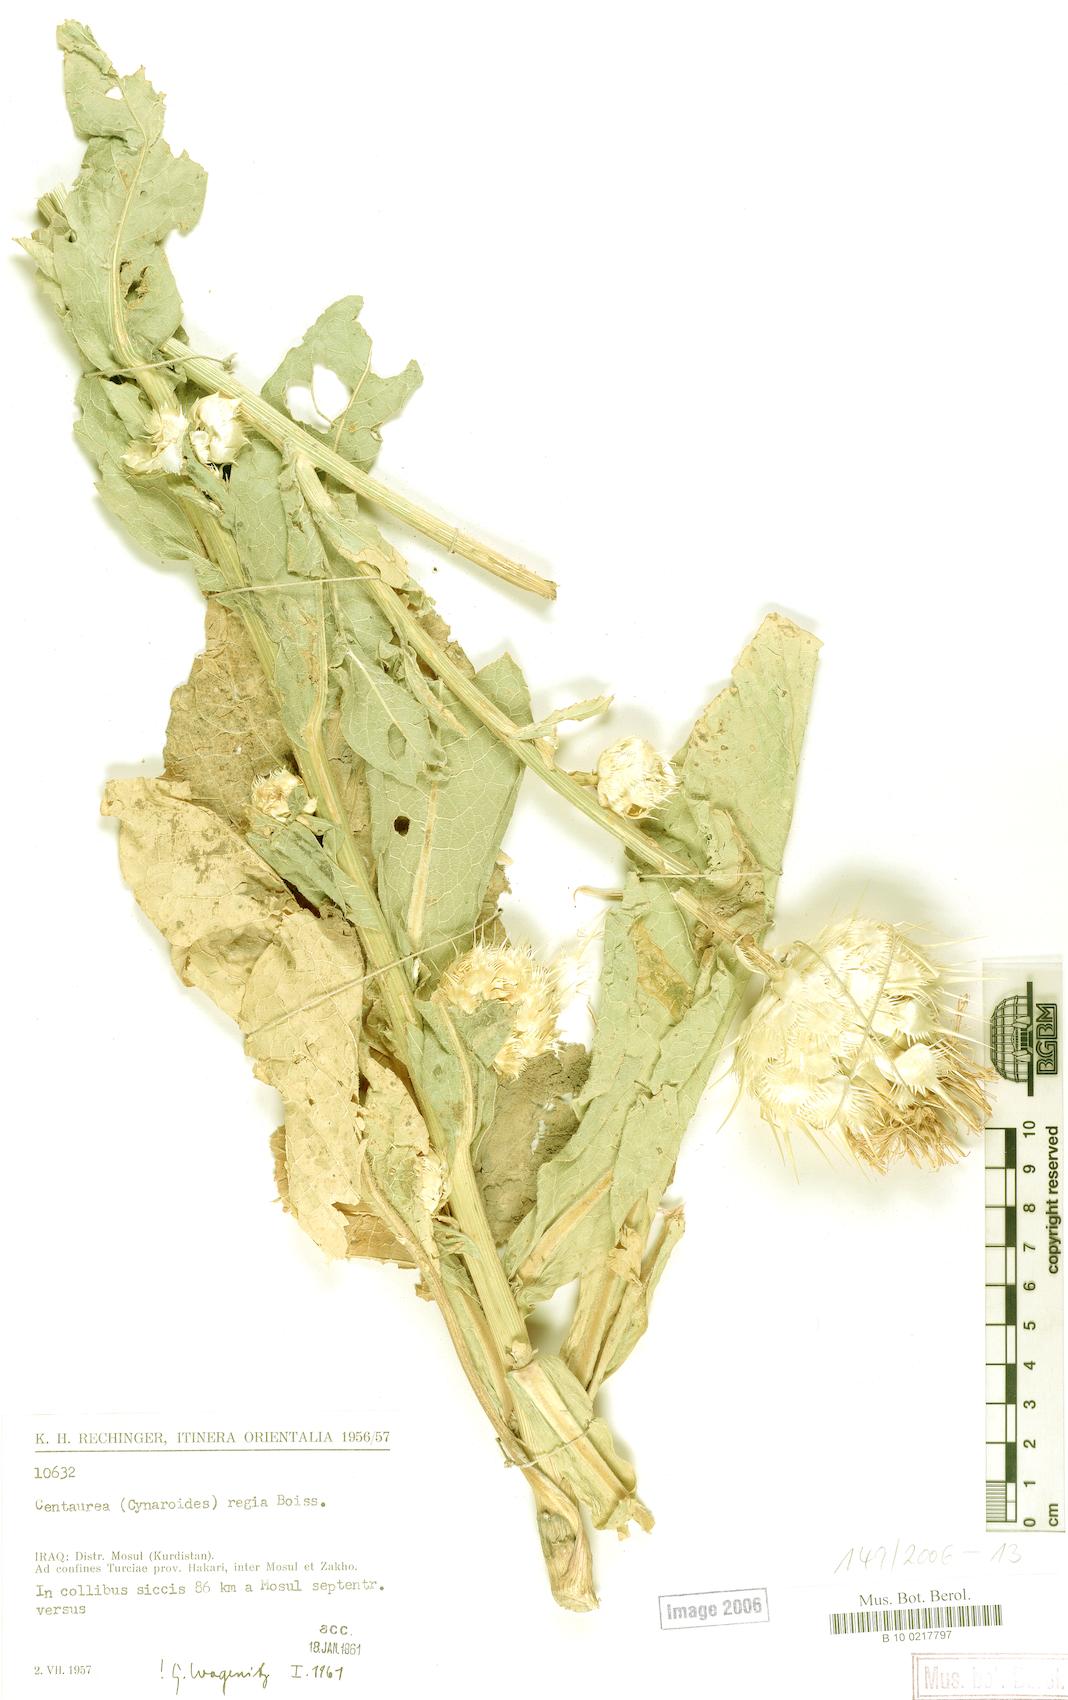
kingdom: Plantae
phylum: Tracheophyta
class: Magnoliopsida
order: Asterales
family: Asteraceae
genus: Centaurea
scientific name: Centaurea regia
